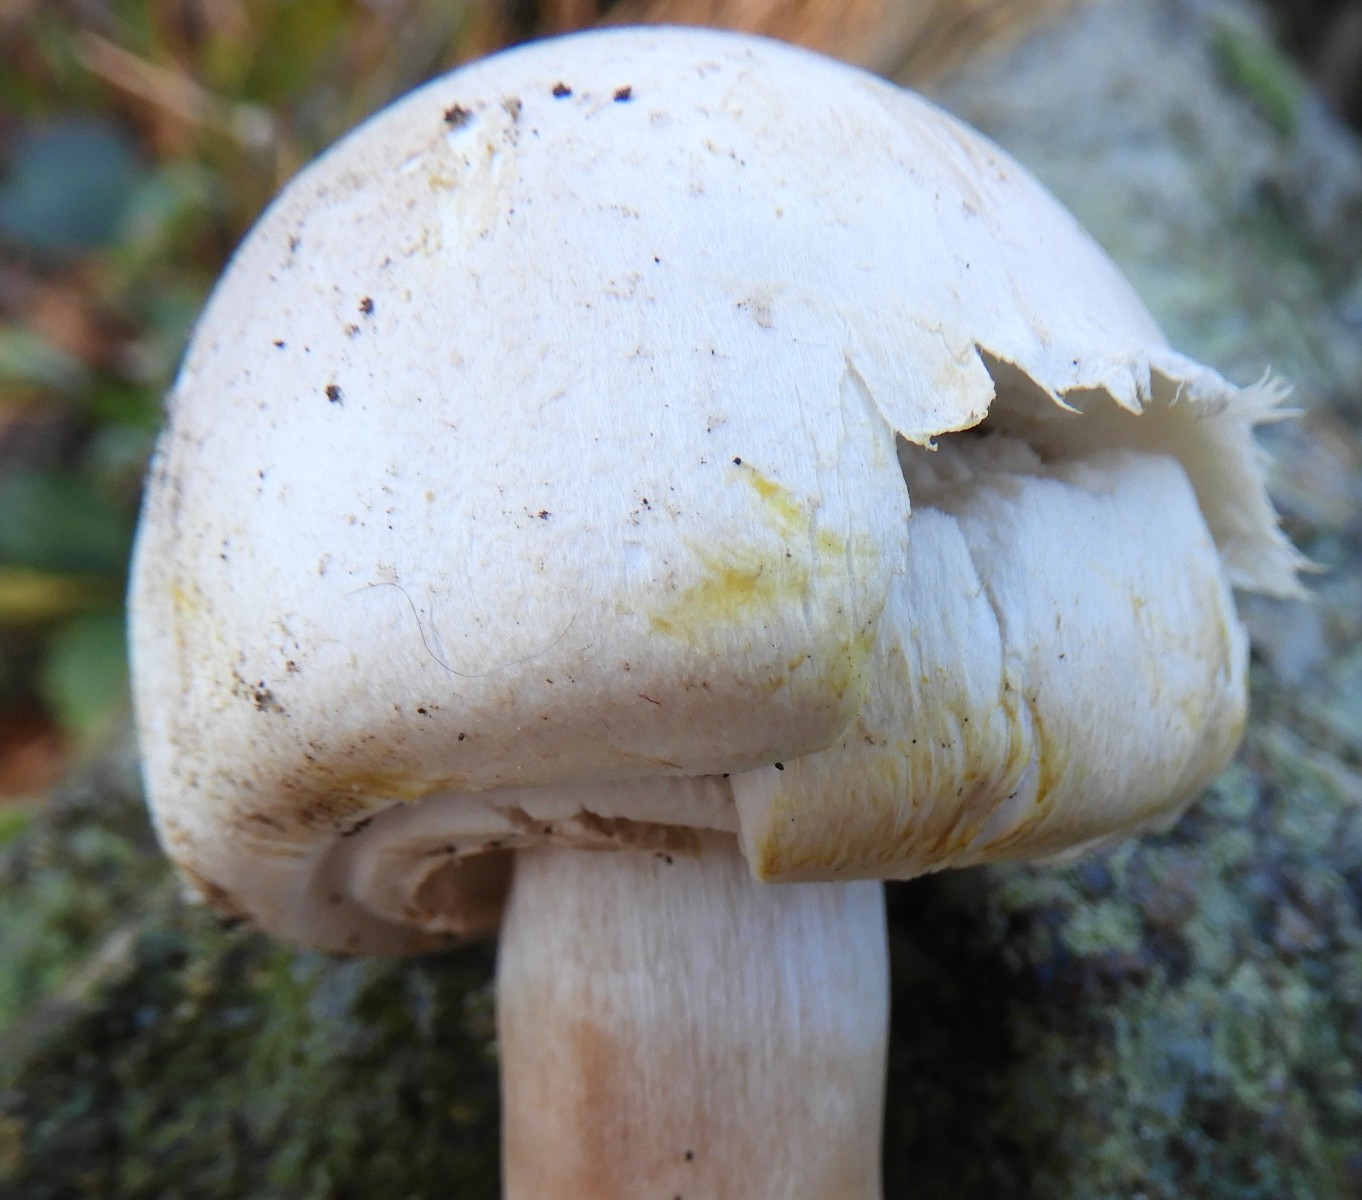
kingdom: Fungi
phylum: Basidiomycota
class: Agaricomycetes
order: Agaricales
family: Agaricaceae
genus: Agaricus
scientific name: Agaricus sylvicola
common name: gulhvid champignon
